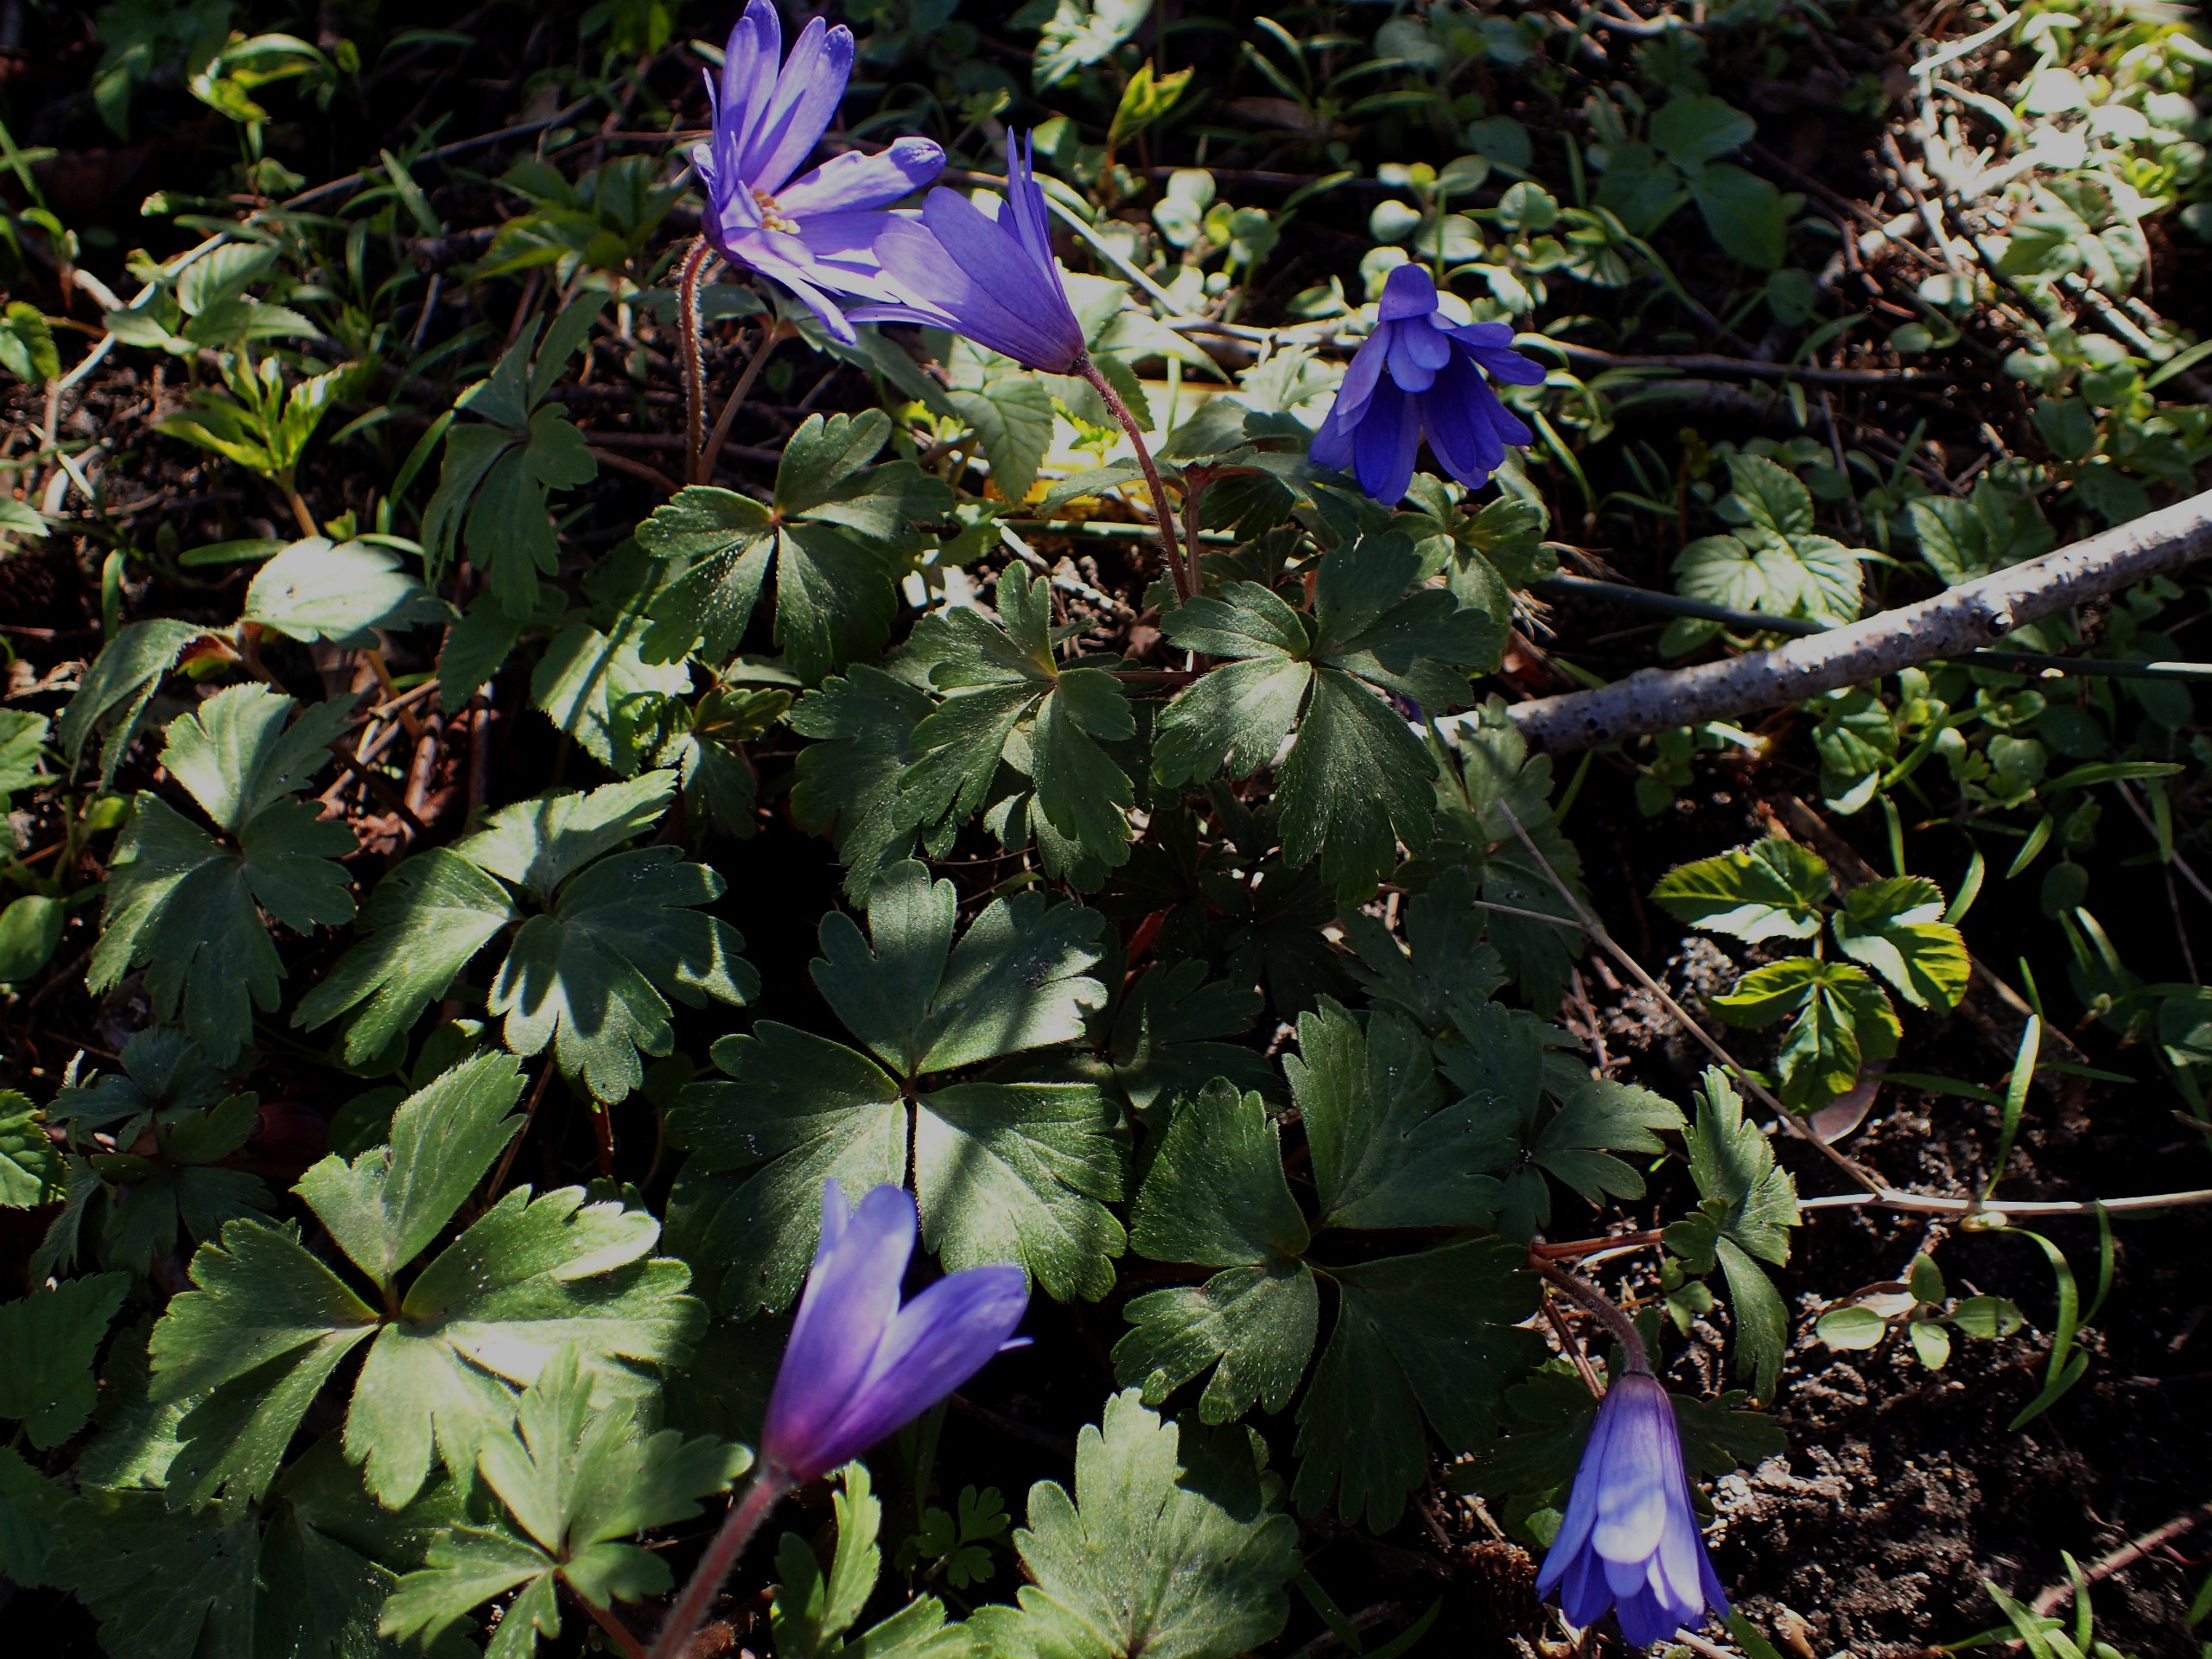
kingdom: Plantae
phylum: Tracheophyta
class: Magnoliopsida
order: Ranunculales
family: Ranunculaceae
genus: Anemone
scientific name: Anemone blanda
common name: Balkan-anemone
